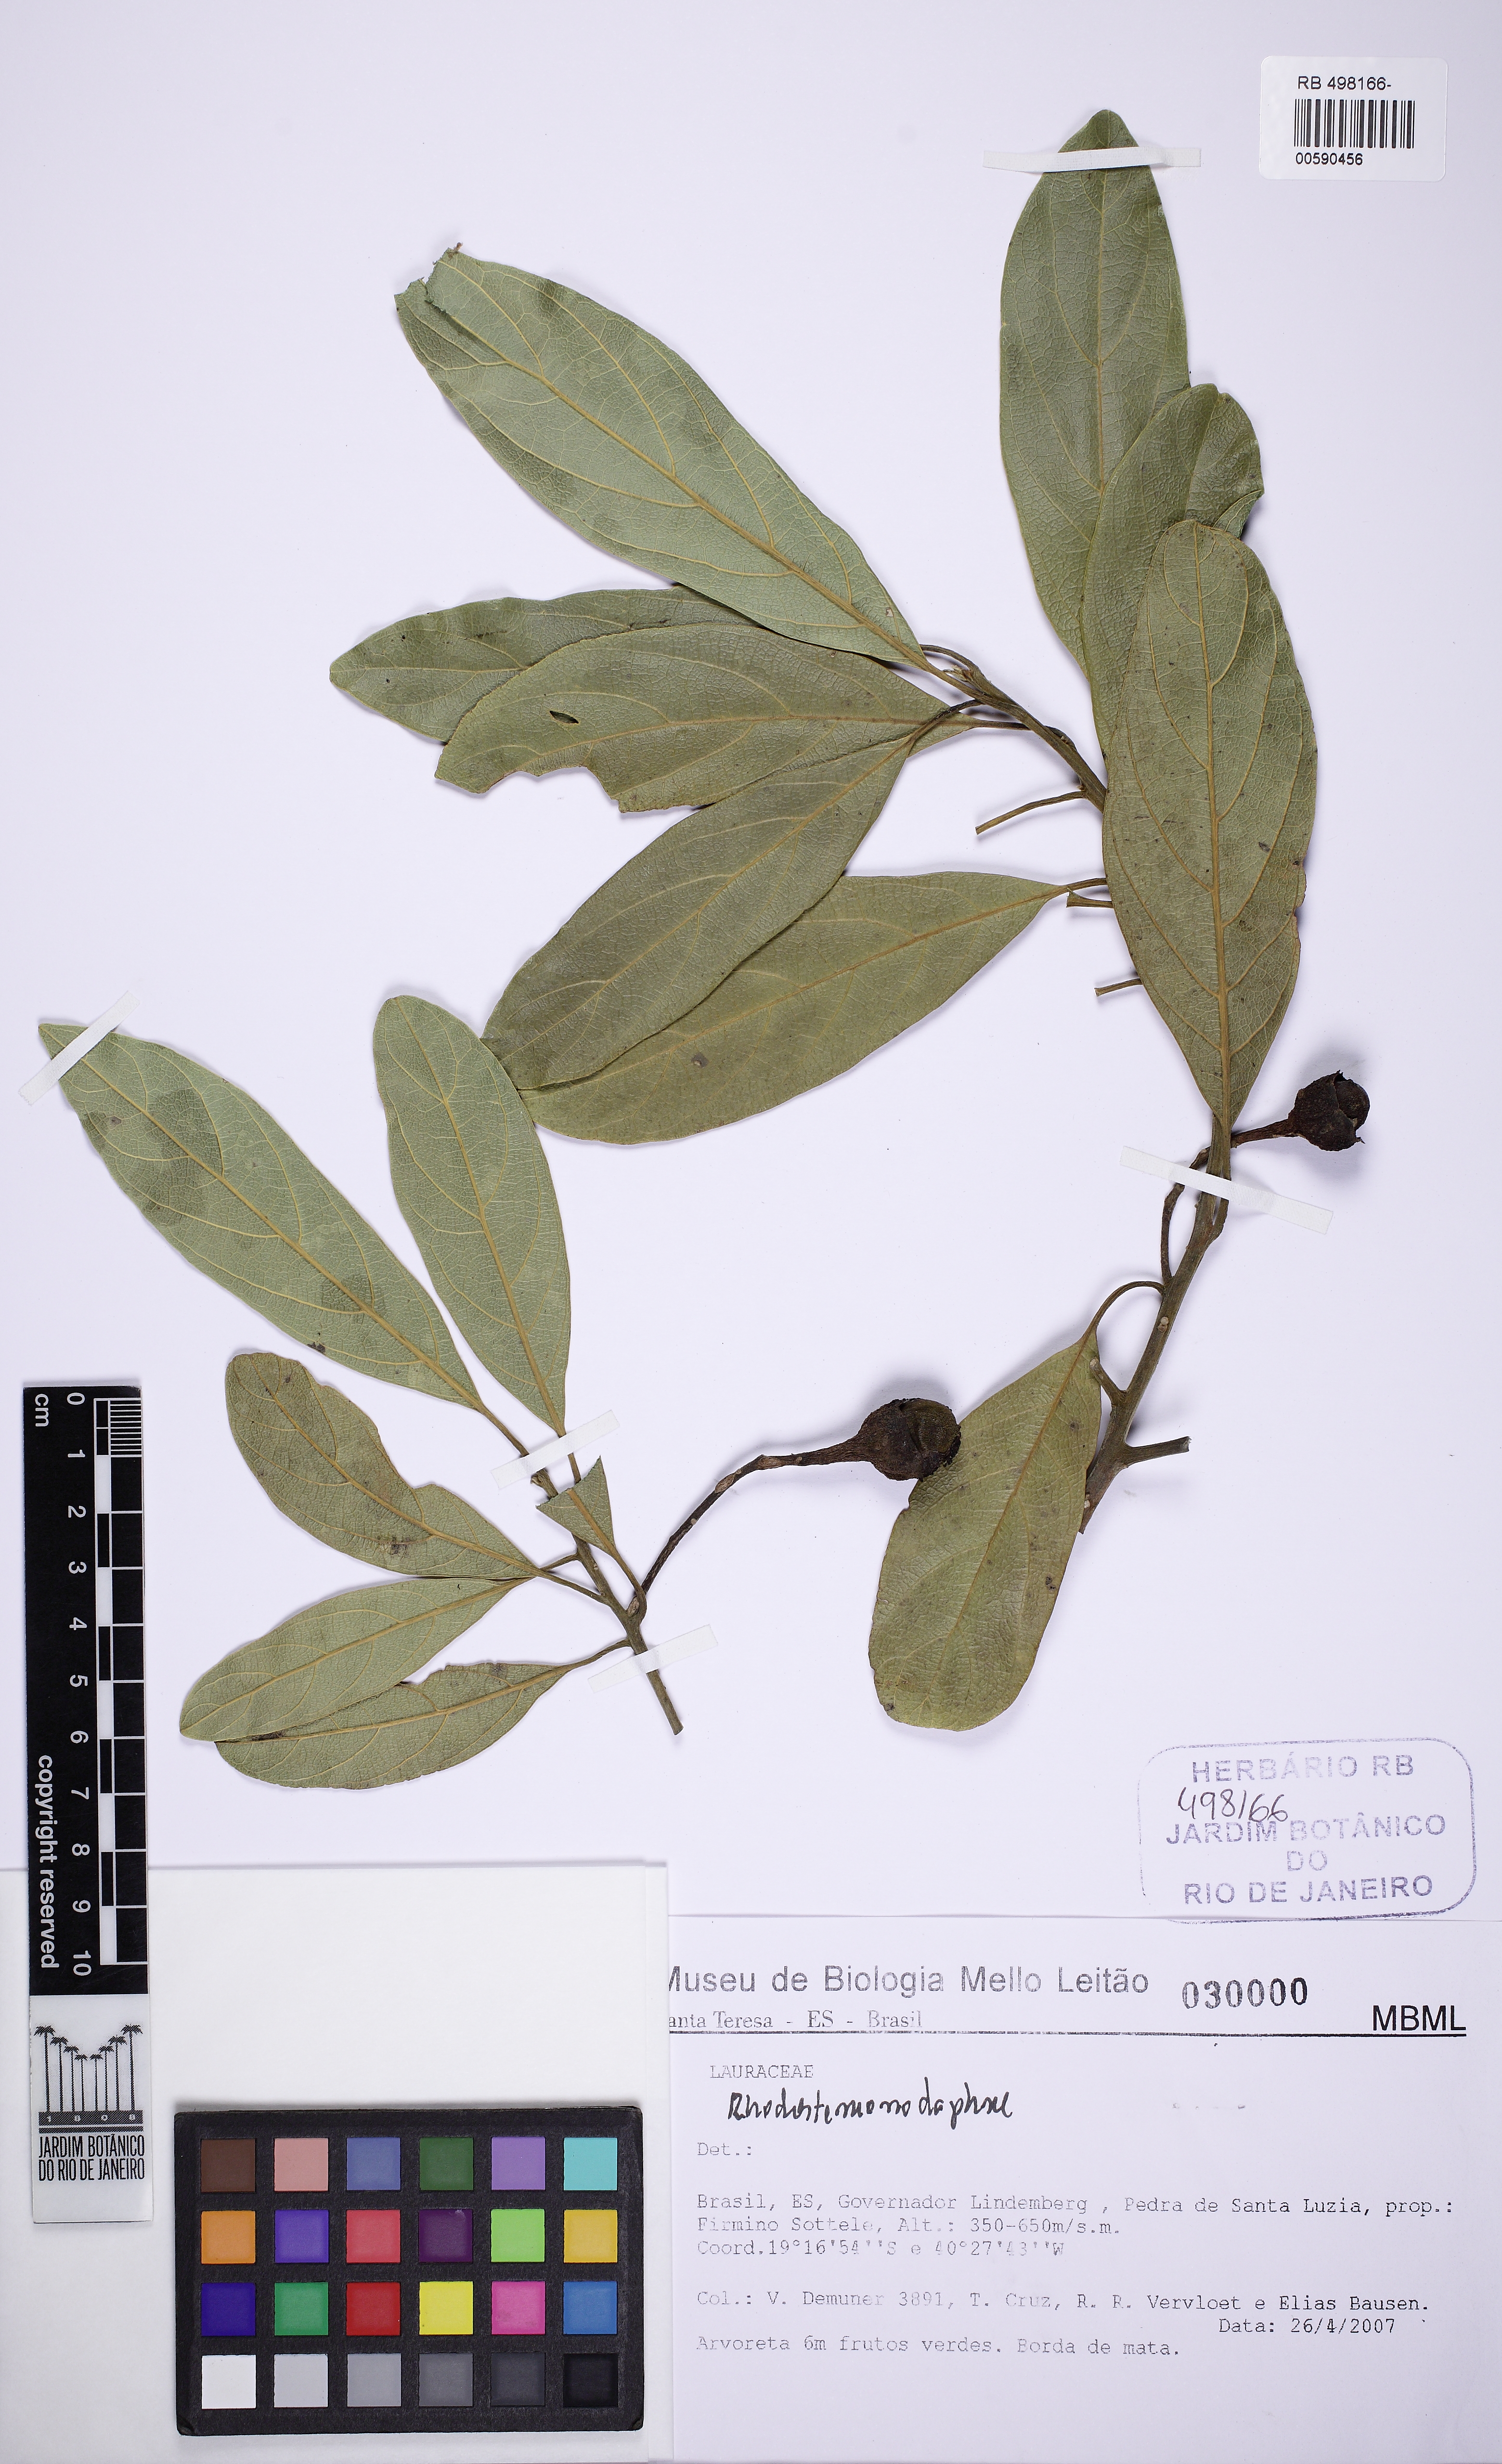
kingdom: Plantae
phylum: Tracheophyta
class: Magnoliopsida
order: Laurales
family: Lauraceae
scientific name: Lauraceae
